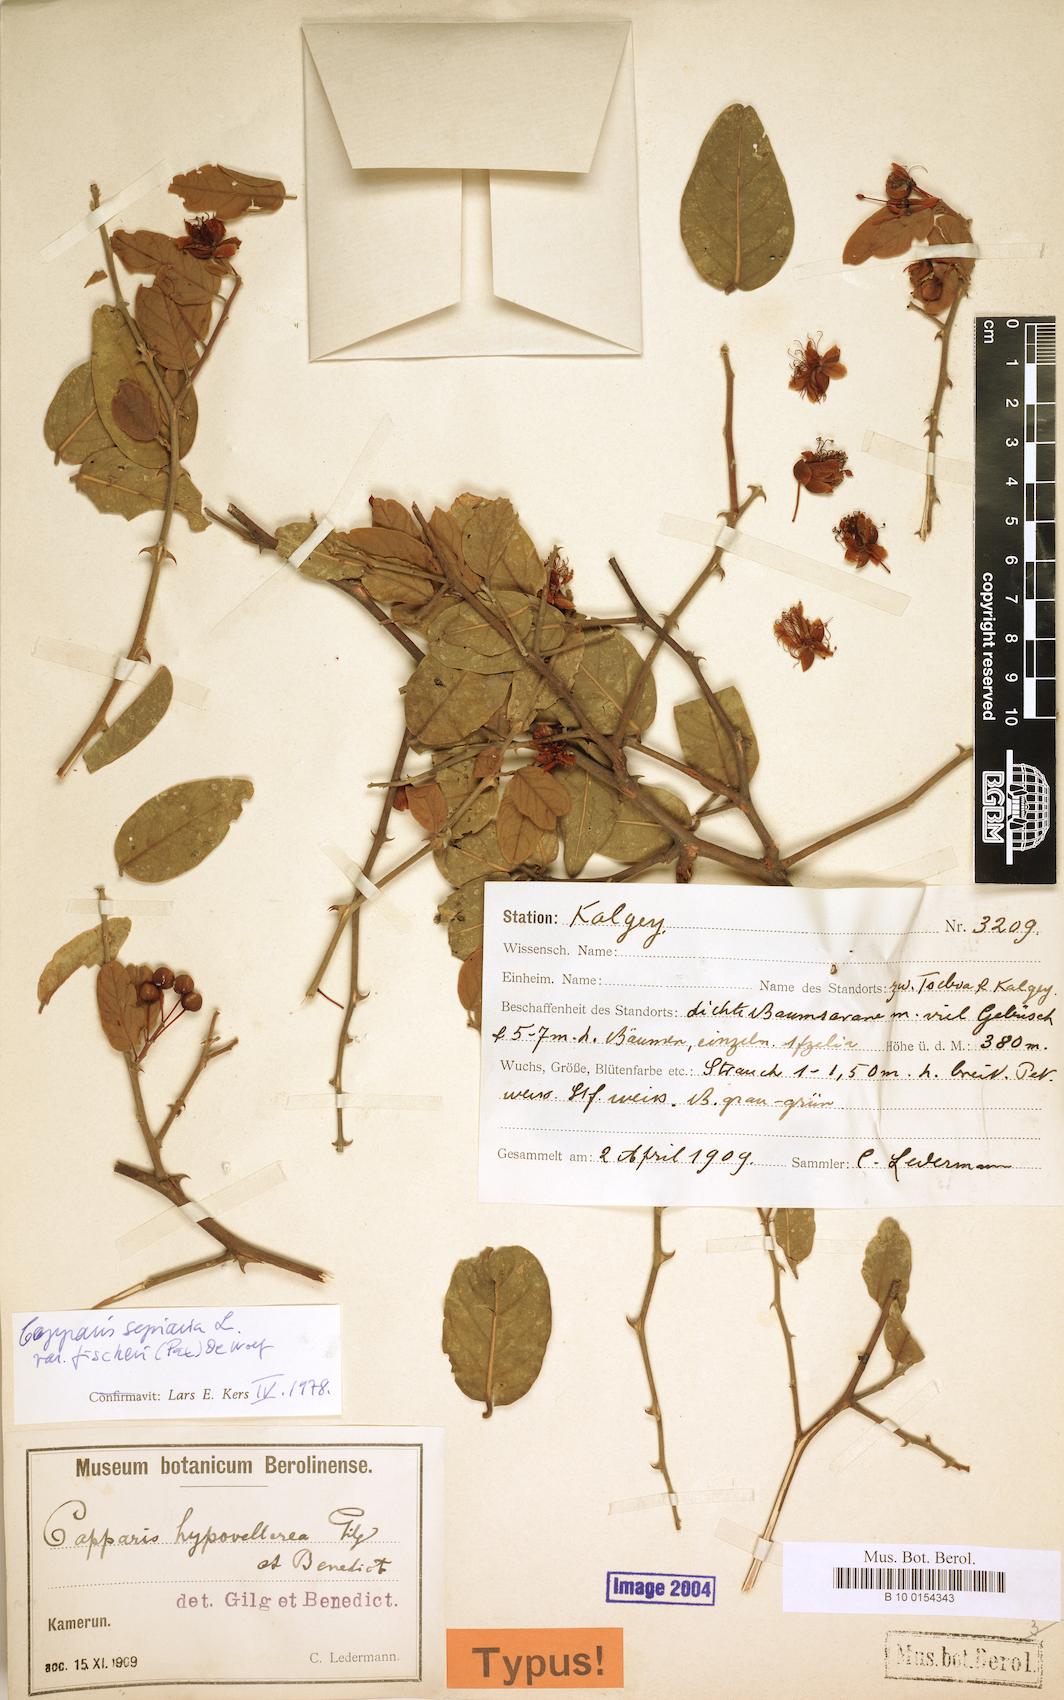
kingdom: Plantae
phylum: Tracheophyta
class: Magnoliopsida
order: Brassicales
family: Capparaceae
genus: Capparis
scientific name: Capparis sepiaria
